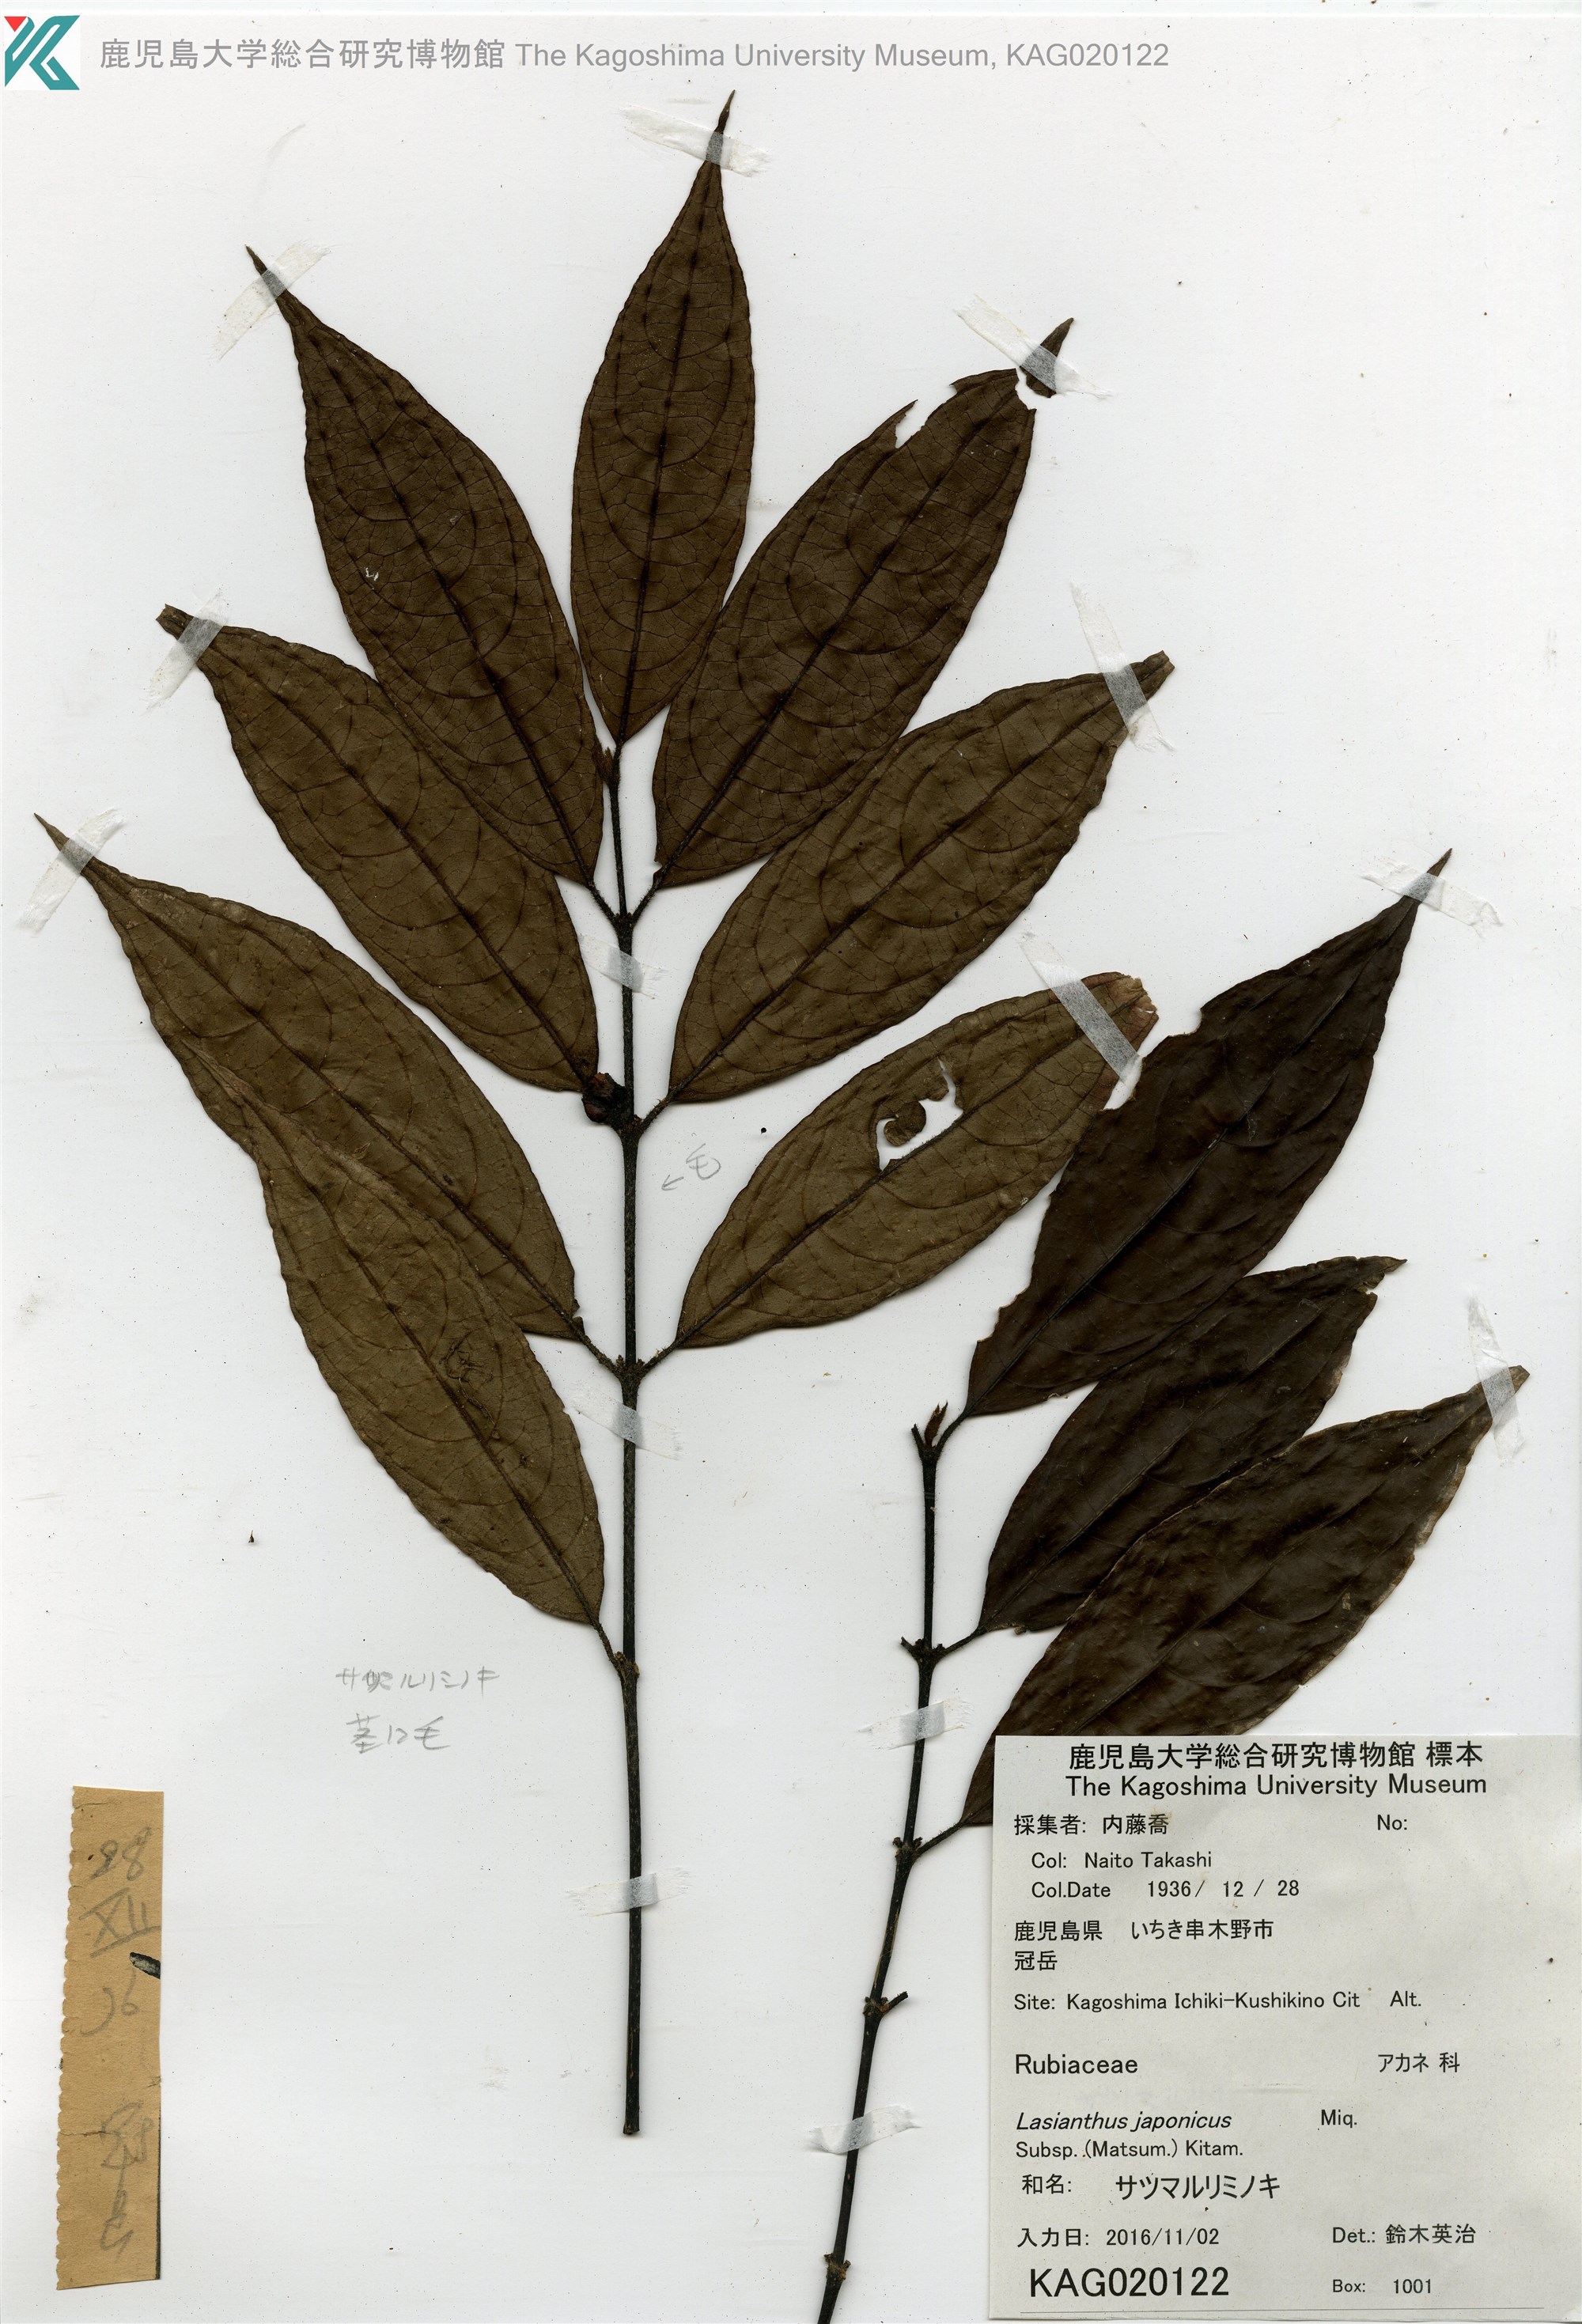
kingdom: Plantae
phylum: Tracheophyta
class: Magnoliopsida
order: Gentianales
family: Rubiaceae
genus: Lasianthus
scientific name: Lasianthus japonicus
